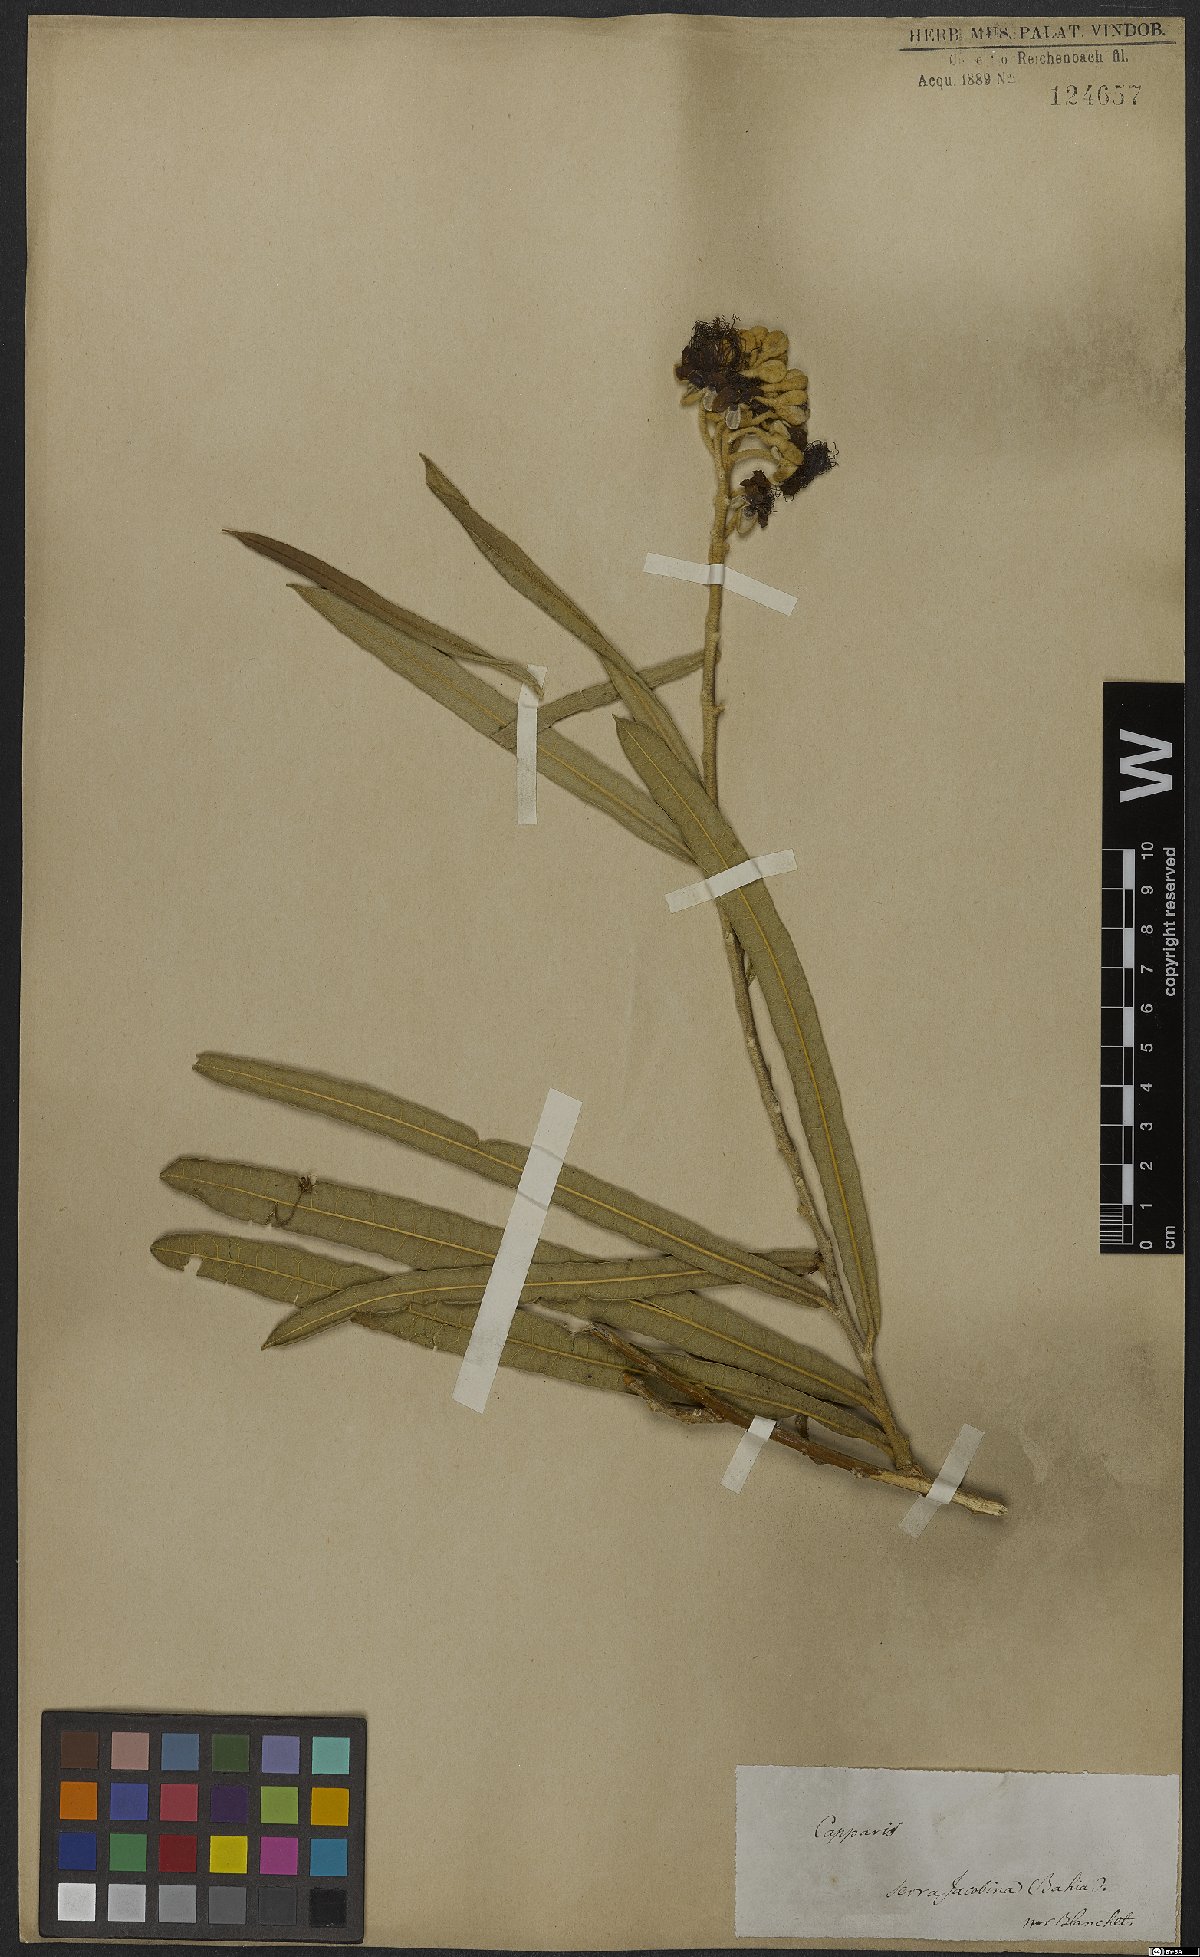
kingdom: Plantae
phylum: Tracheophyta
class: Magnoliopsida
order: Brassicales
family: Capparaceae
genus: Neocalyptrocalyx
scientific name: Neocalyptrocalyx longifolium
